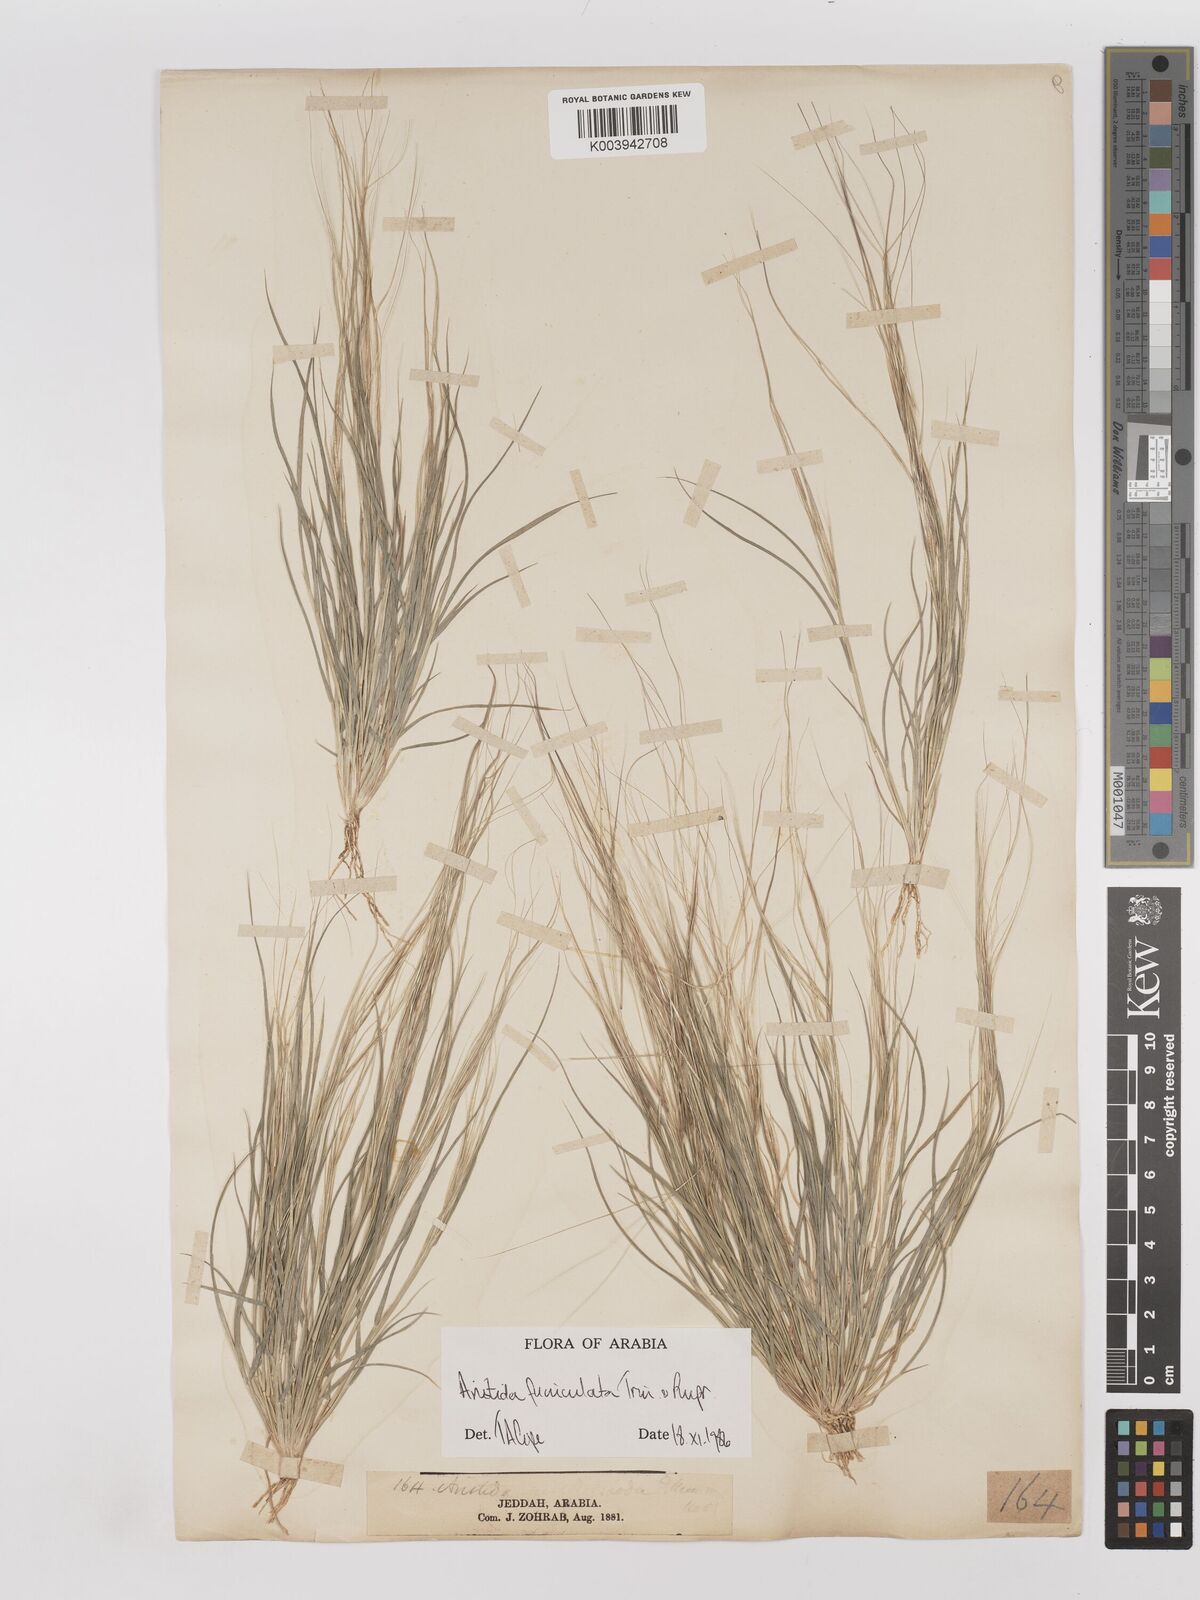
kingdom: Plantae
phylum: Tracheophyta
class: Liliopsida
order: Poales
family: Poaceae
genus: Aristida
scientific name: Aristida funiculata
